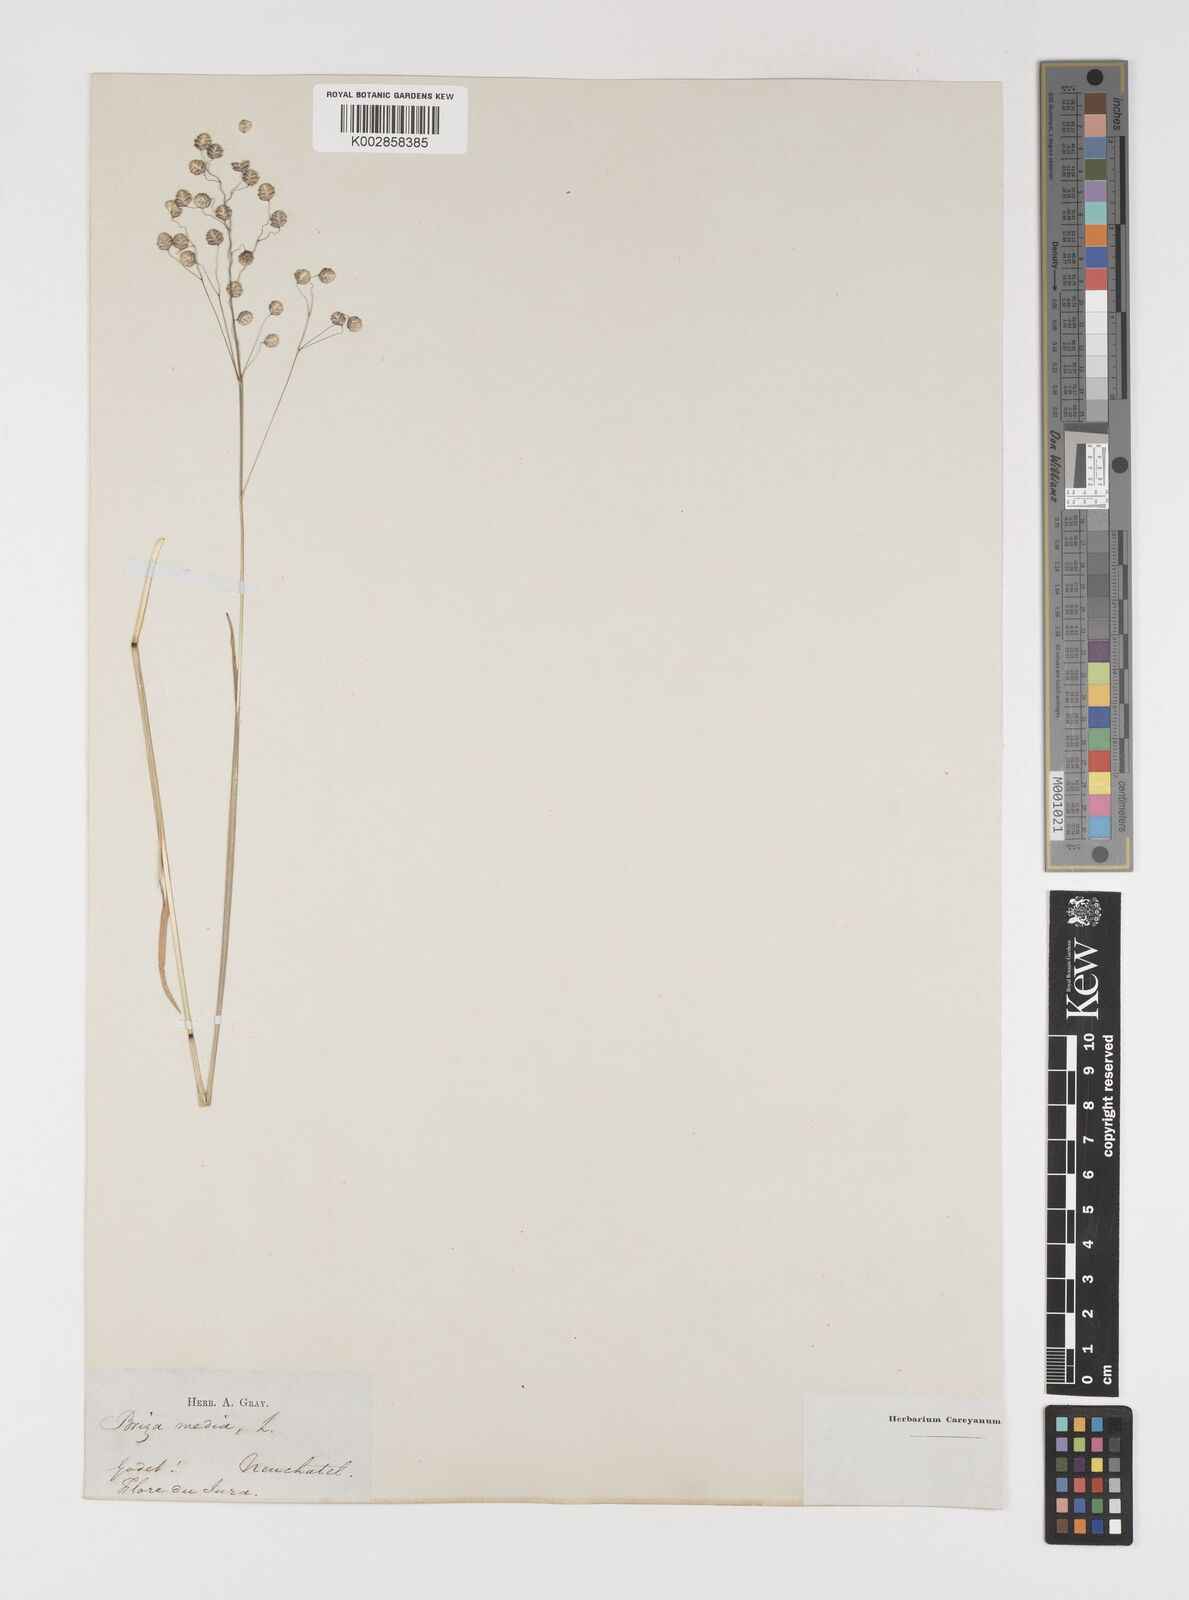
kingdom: Plantae
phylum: Tracheophyta
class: Liliopsida
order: Poales
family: Poaceae
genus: Briza
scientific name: Briza media
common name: Quaking grass
